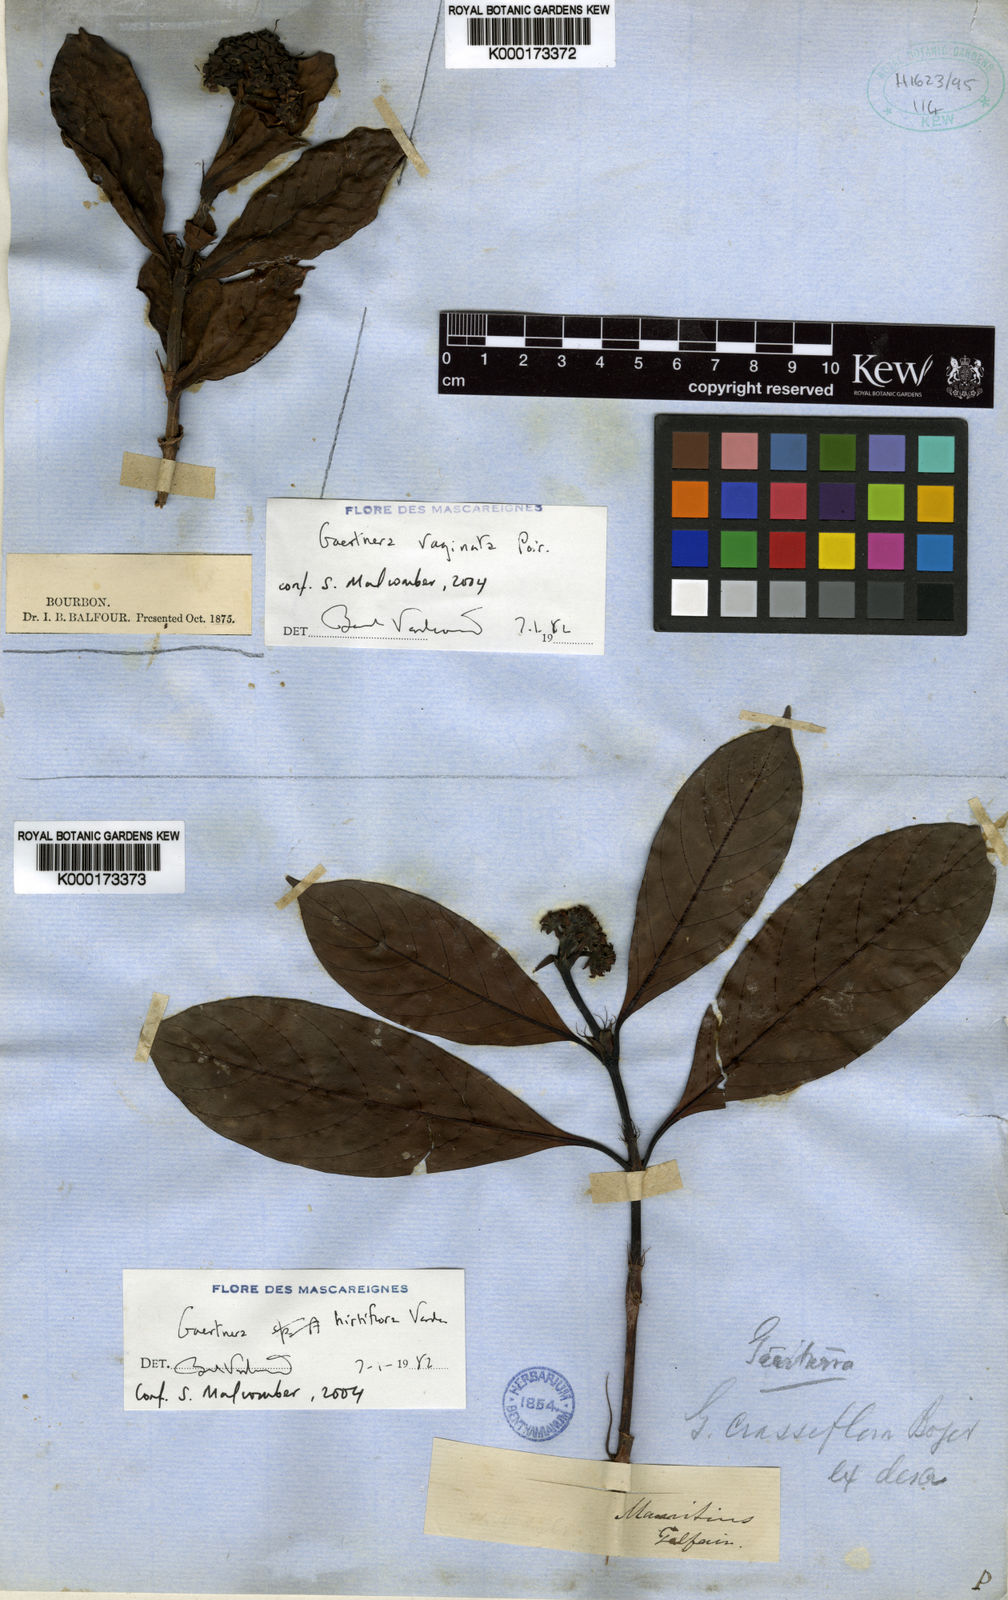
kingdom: Plantae
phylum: Tracheophyta
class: Magnoliopsida
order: Gentianales
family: Rubiaceae
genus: Gaertnera
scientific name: Gaertnera hirtiflora
